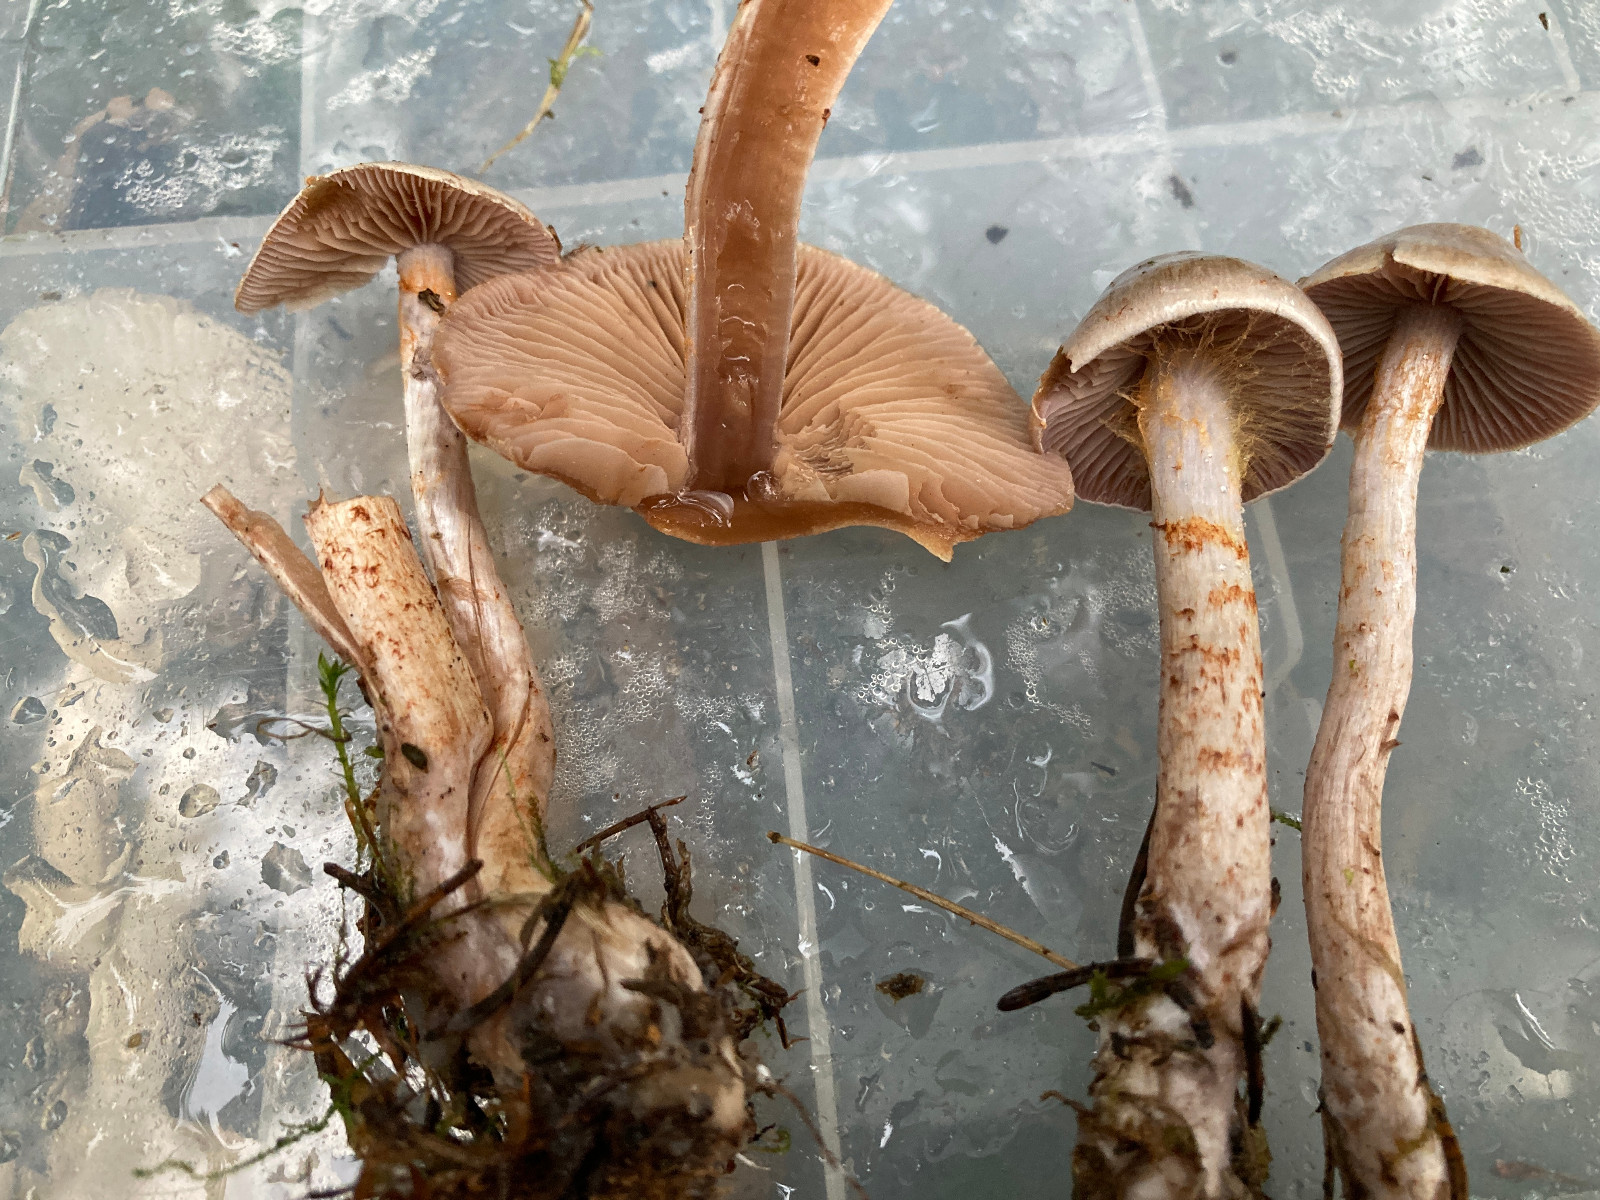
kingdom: Fungi
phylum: Basidiomycota
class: Agaricomycetes
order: Agaricales
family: Cortinariaceae
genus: Cortinarius
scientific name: Cortinarius spilomeus
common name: rødfnugget slørhat
